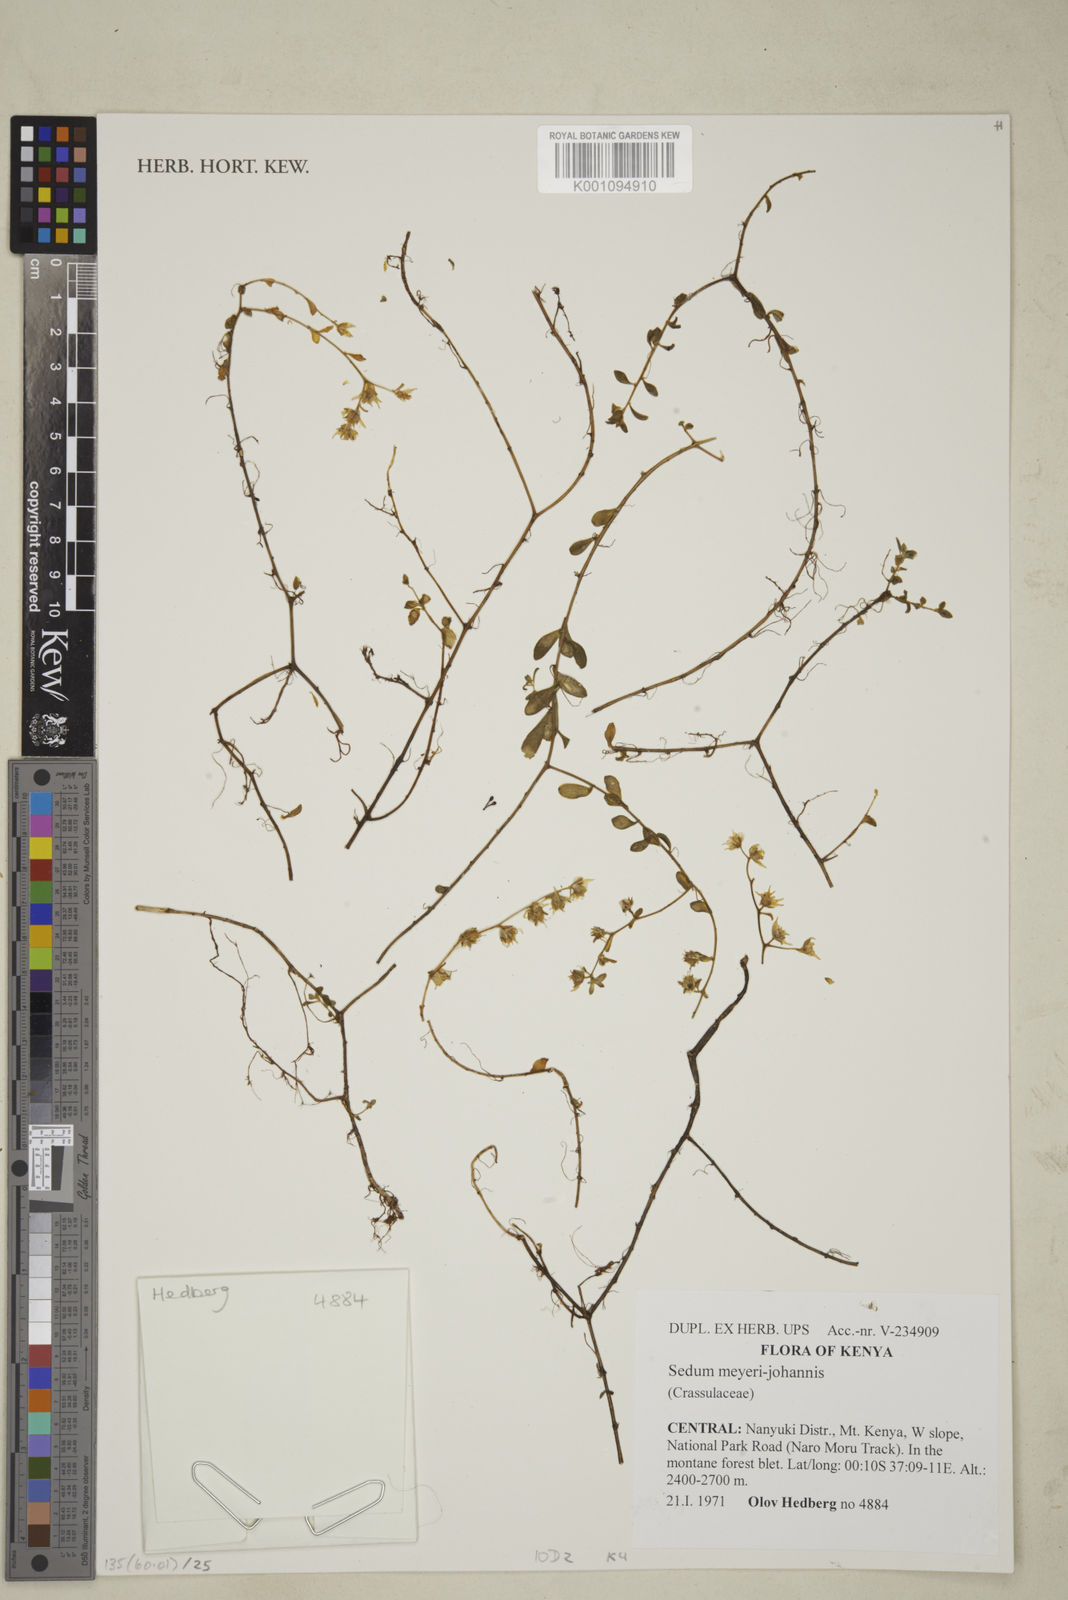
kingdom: Plantae
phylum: Tracheophyta
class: Magnoliopsida
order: Saxifragales
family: Crassulaceae
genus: Sedum
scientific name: Sedum meyeri-johannis
